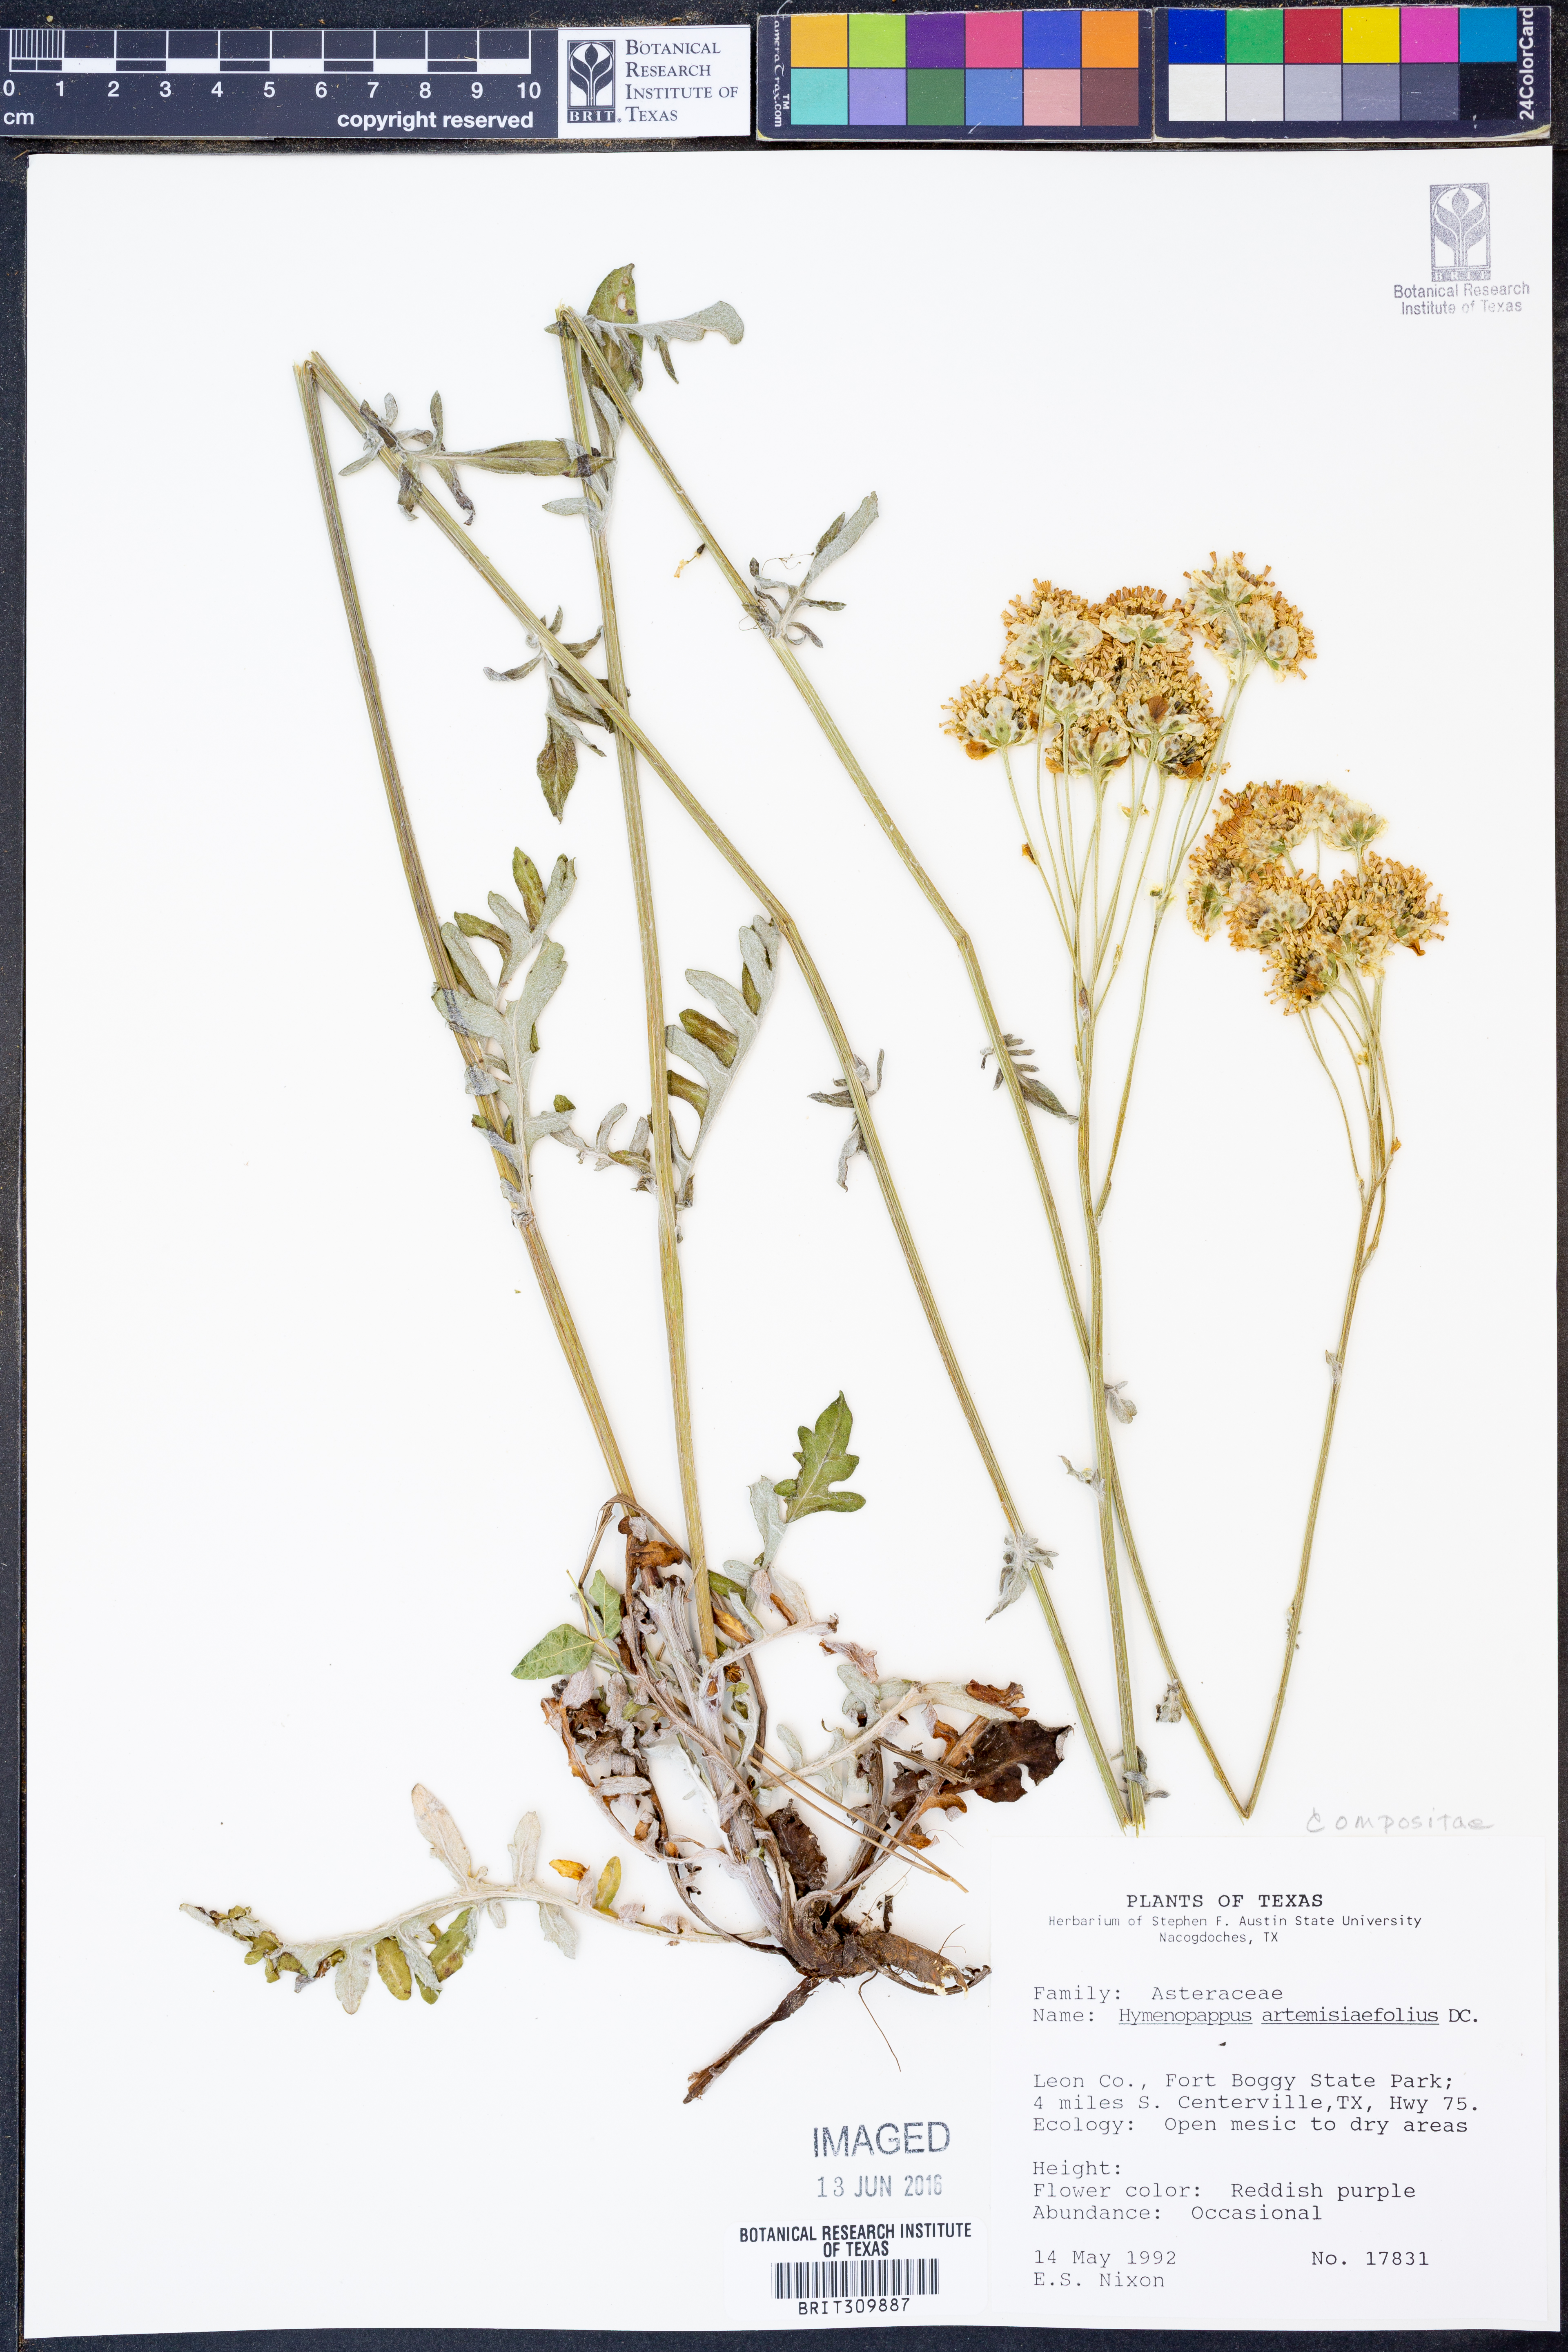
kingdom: Plantae
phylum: Tracheophyta
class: Magnoliopsida
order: Asterales
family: Asteraceae
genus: Hymenopappus
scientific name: Hymenopappus artemisiifolius
